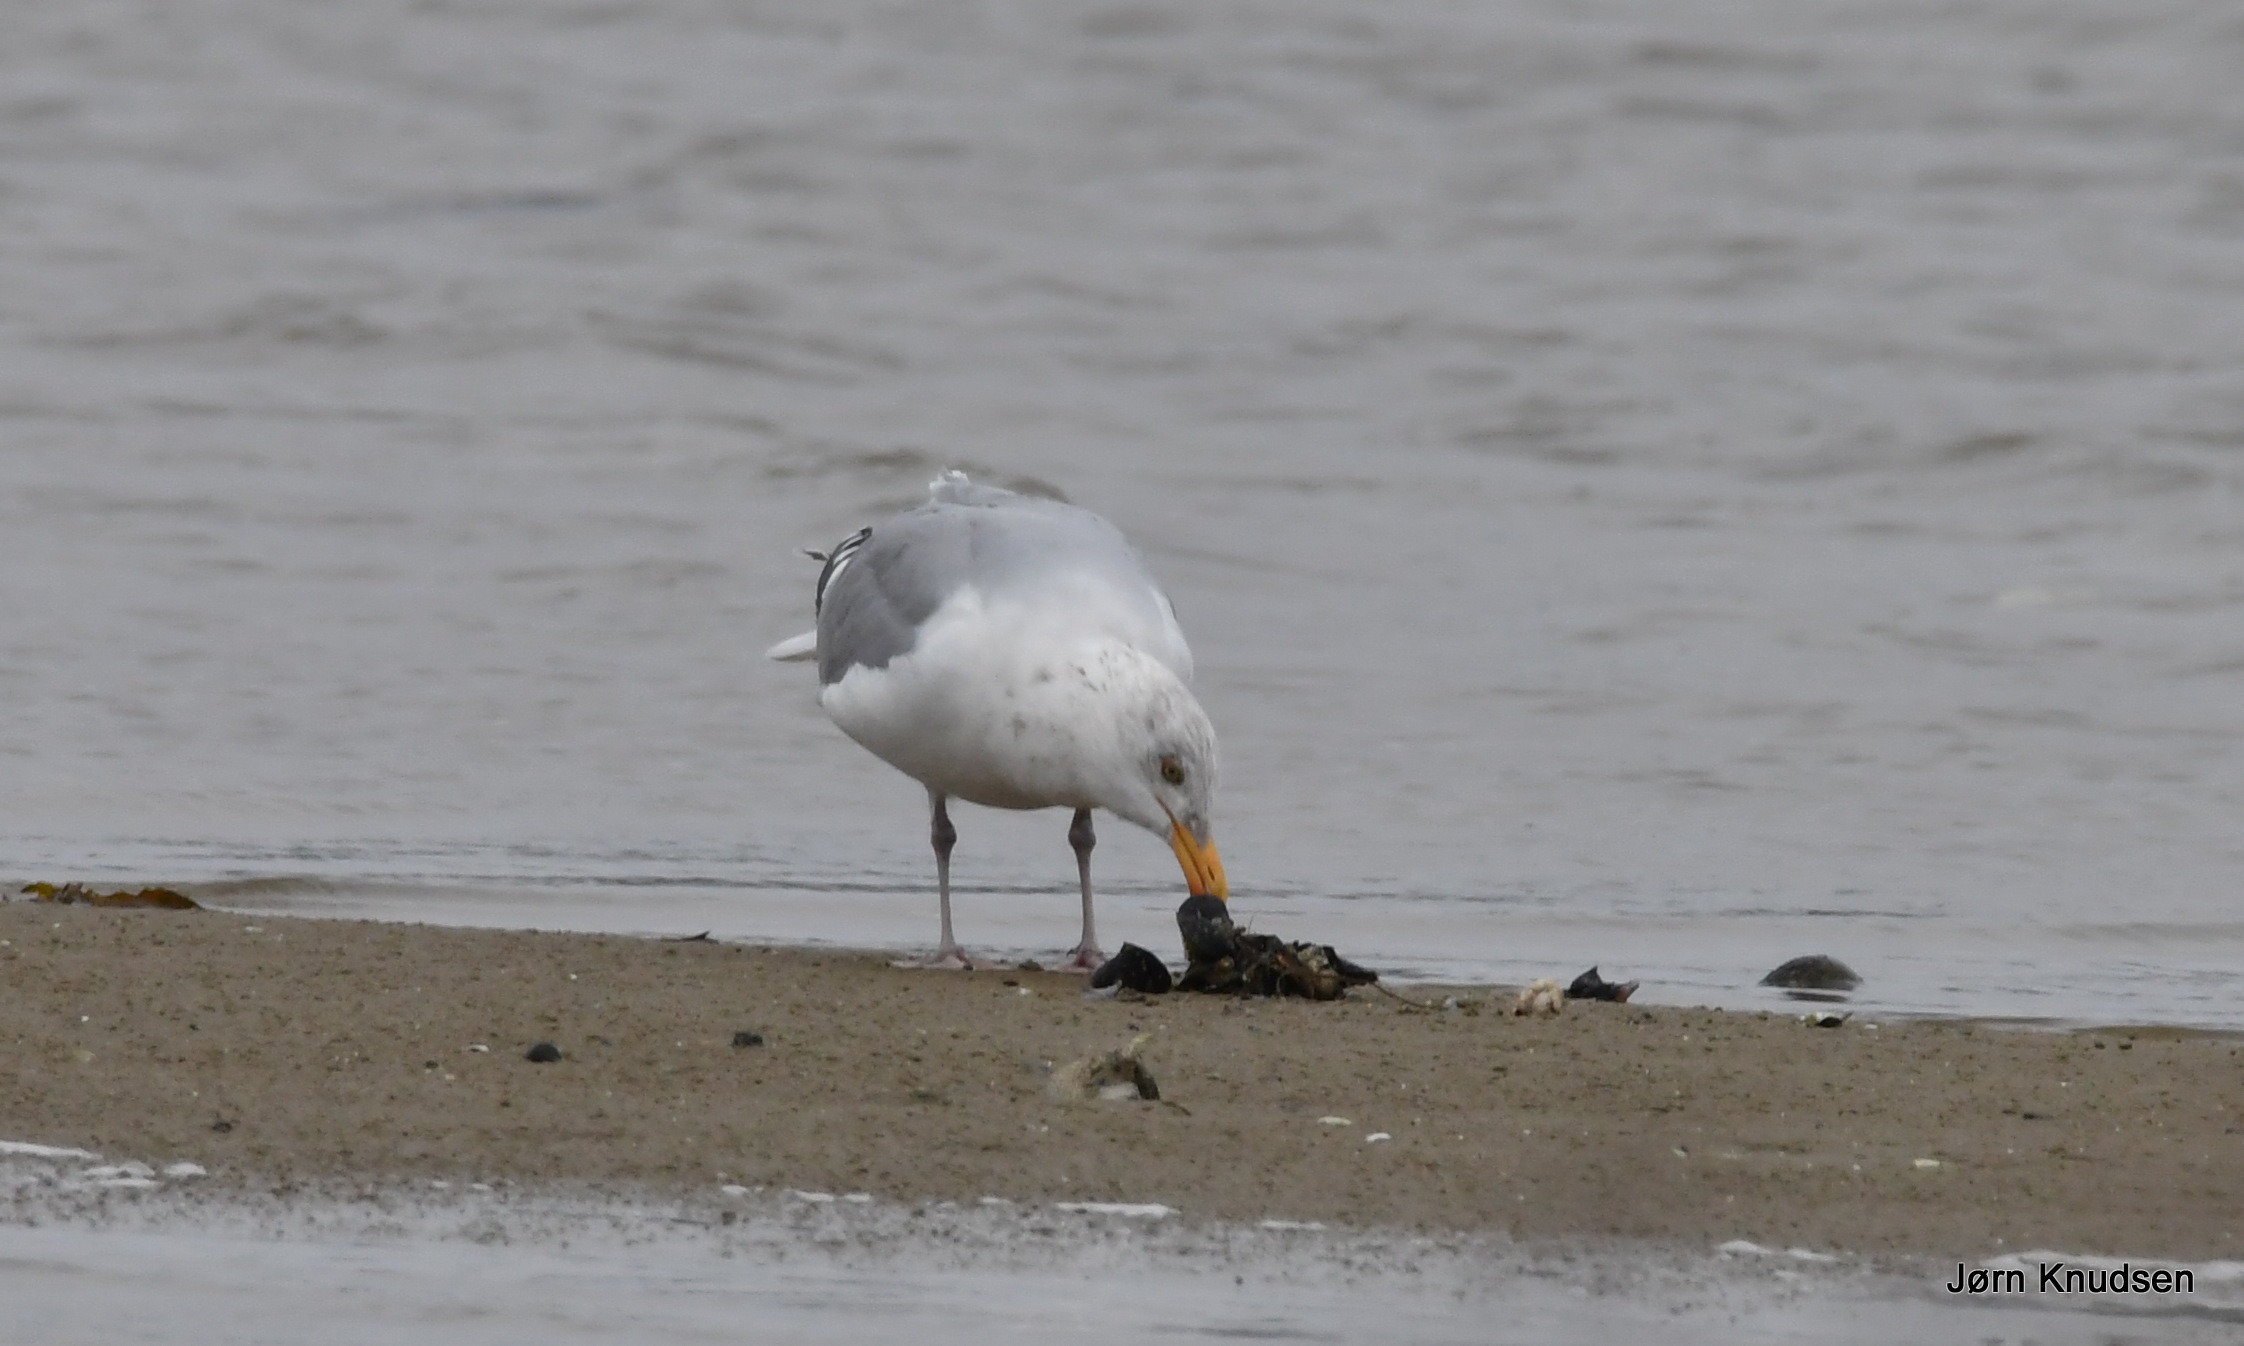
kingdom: Animalia
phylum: Chordata
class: Aves
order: Charadriiformes
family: Laridae
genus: Larus
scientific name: Larus argentatus
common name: Sølvmåge
